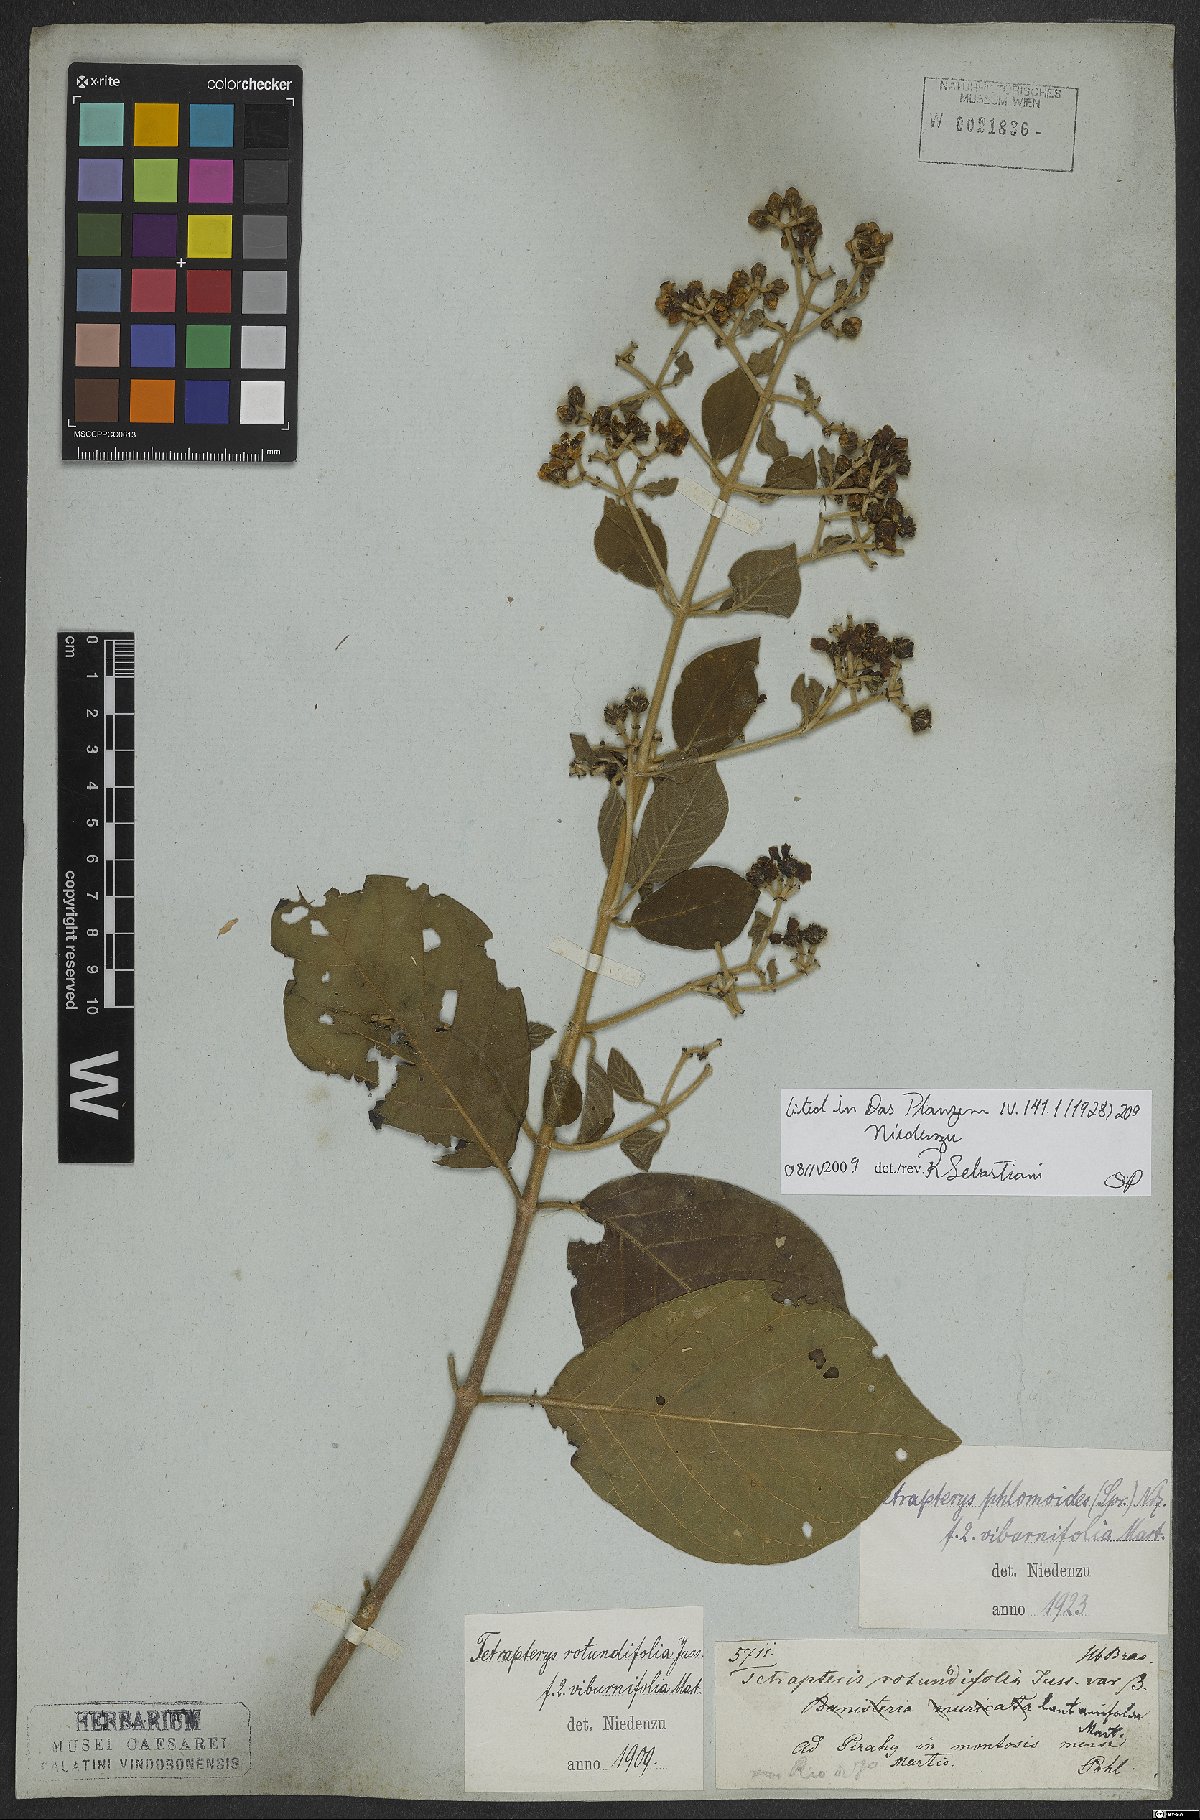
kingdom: Plantae
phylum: Tracheophyta
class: Magnoliopsida
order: Malpighiales
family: Malpighiaceae
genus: Tetrapterys
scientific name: Tetrapterys phlomoides
